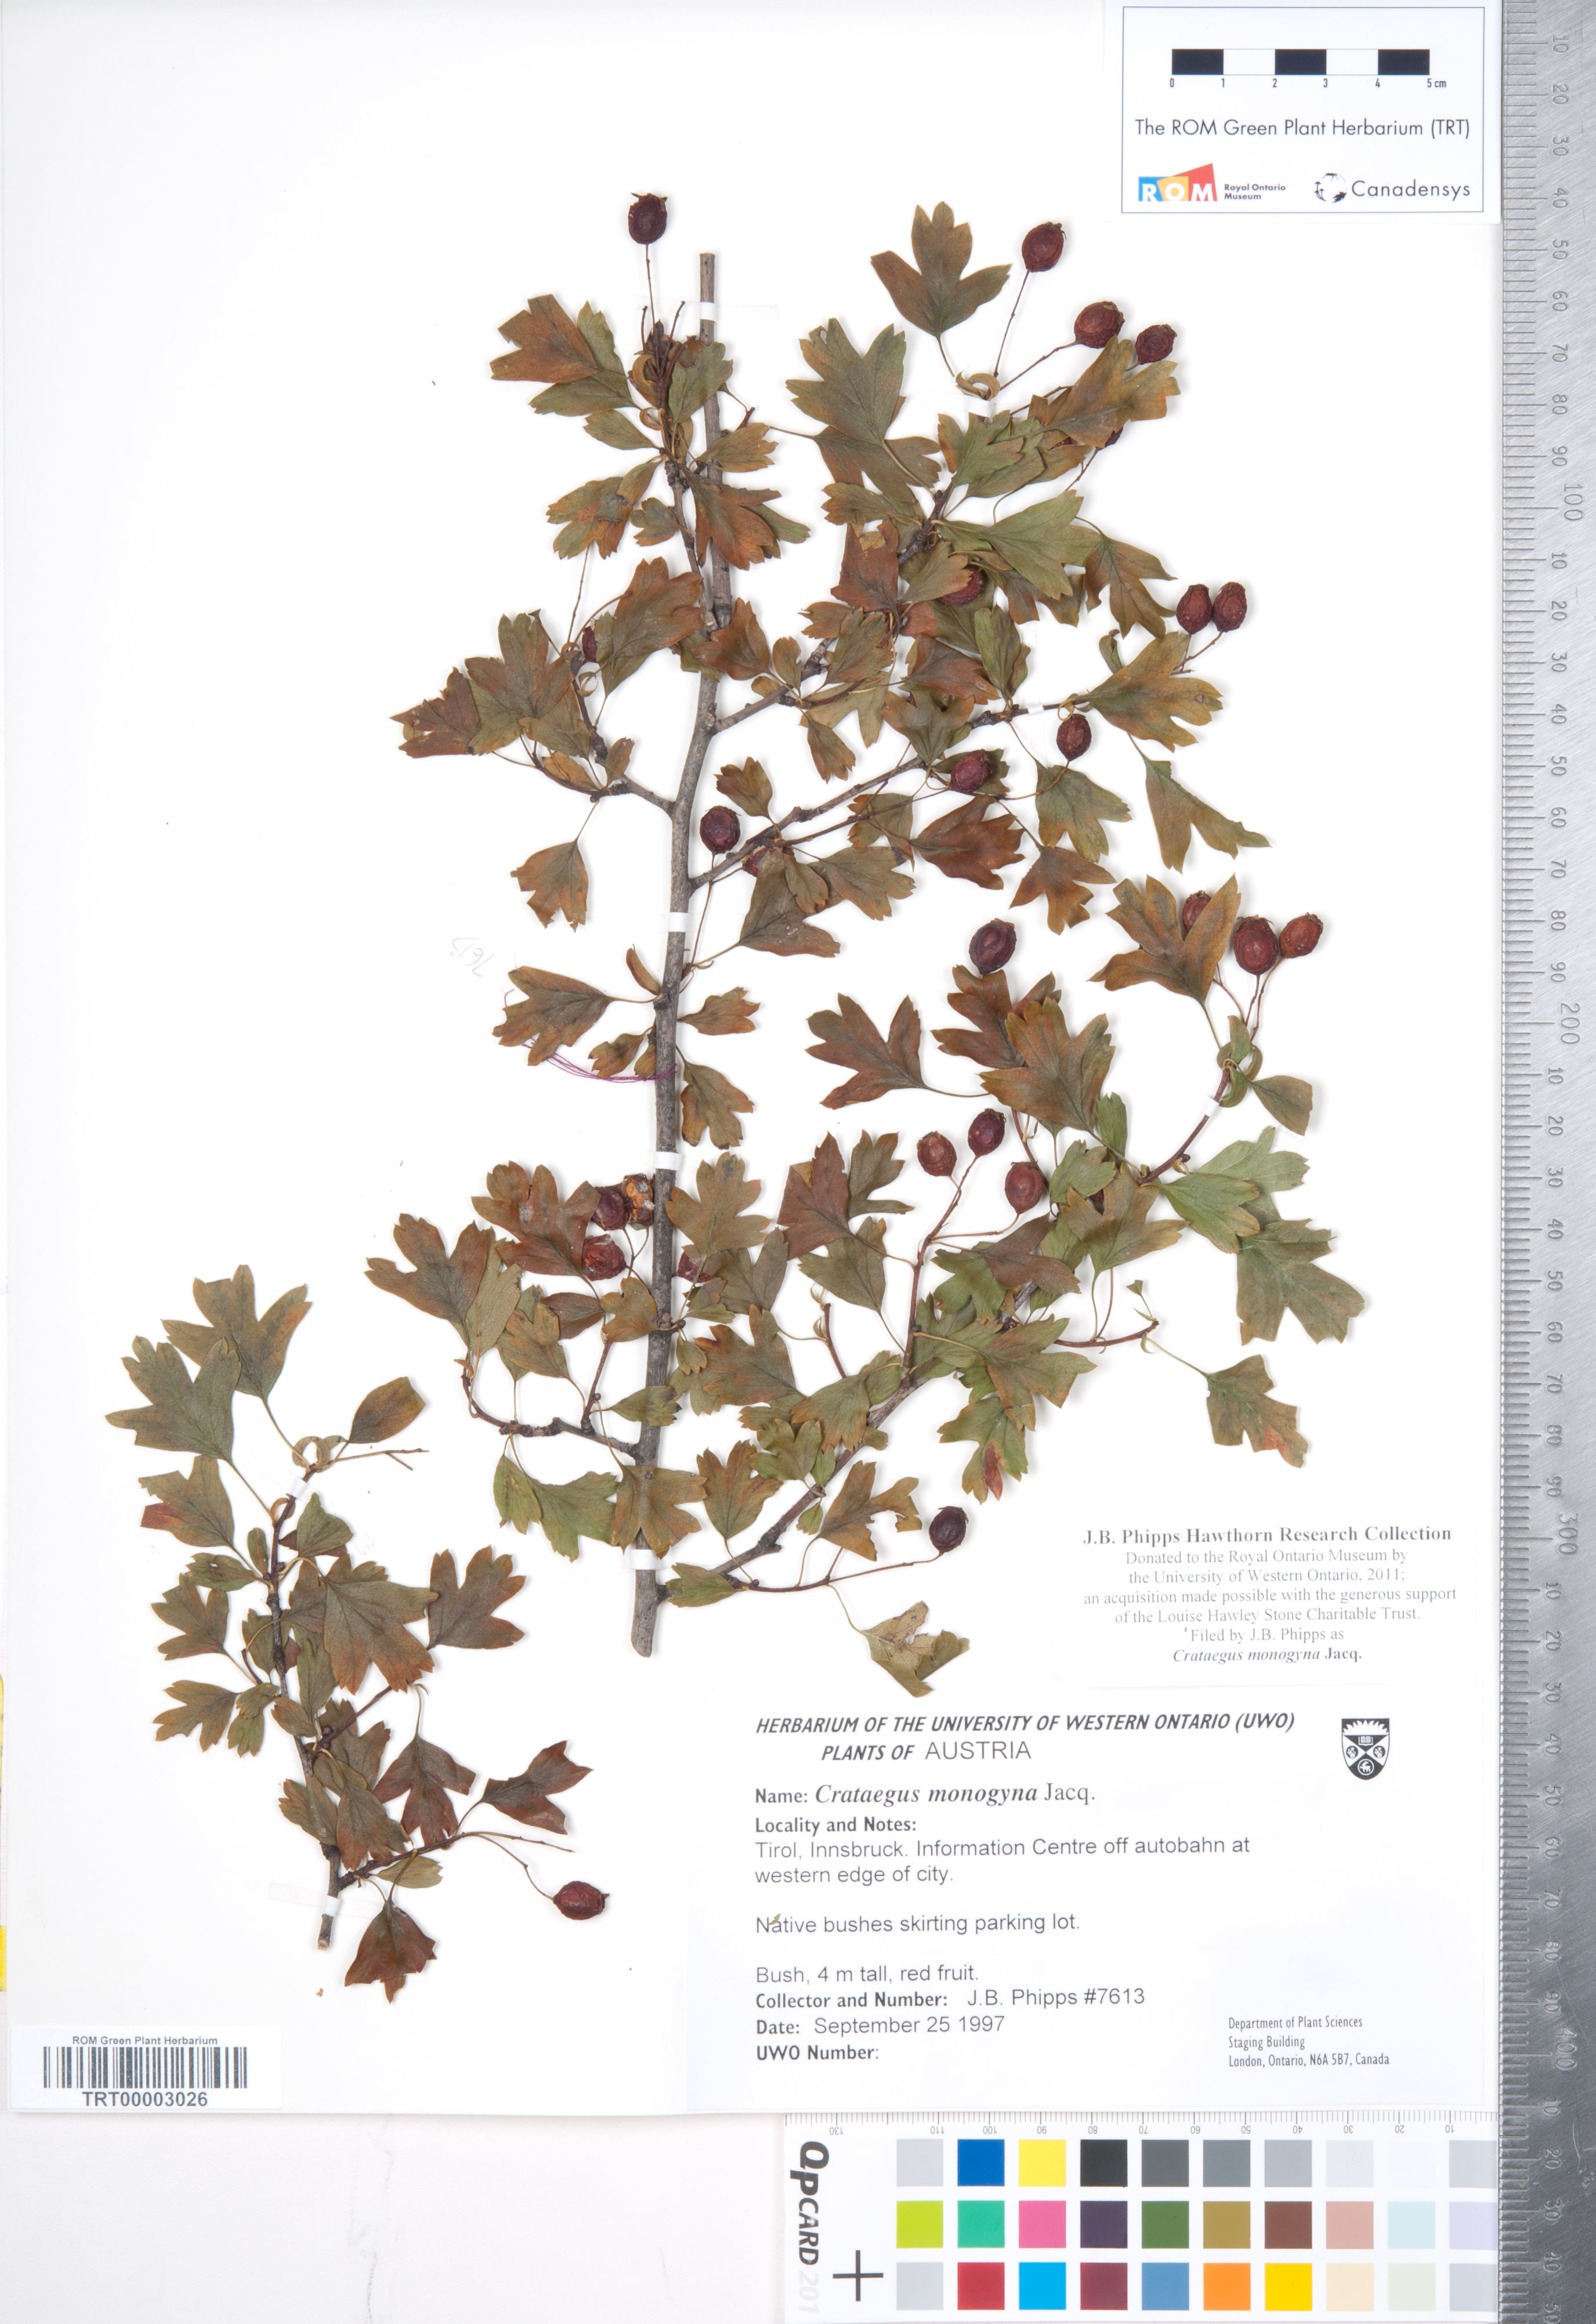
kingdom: Plantae
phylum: Tracheophyta
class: Magnoliopsida
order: Rosales
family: Rosaceae
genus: Crataegus
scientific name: Crataegus monogyna
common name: Hawthorn
